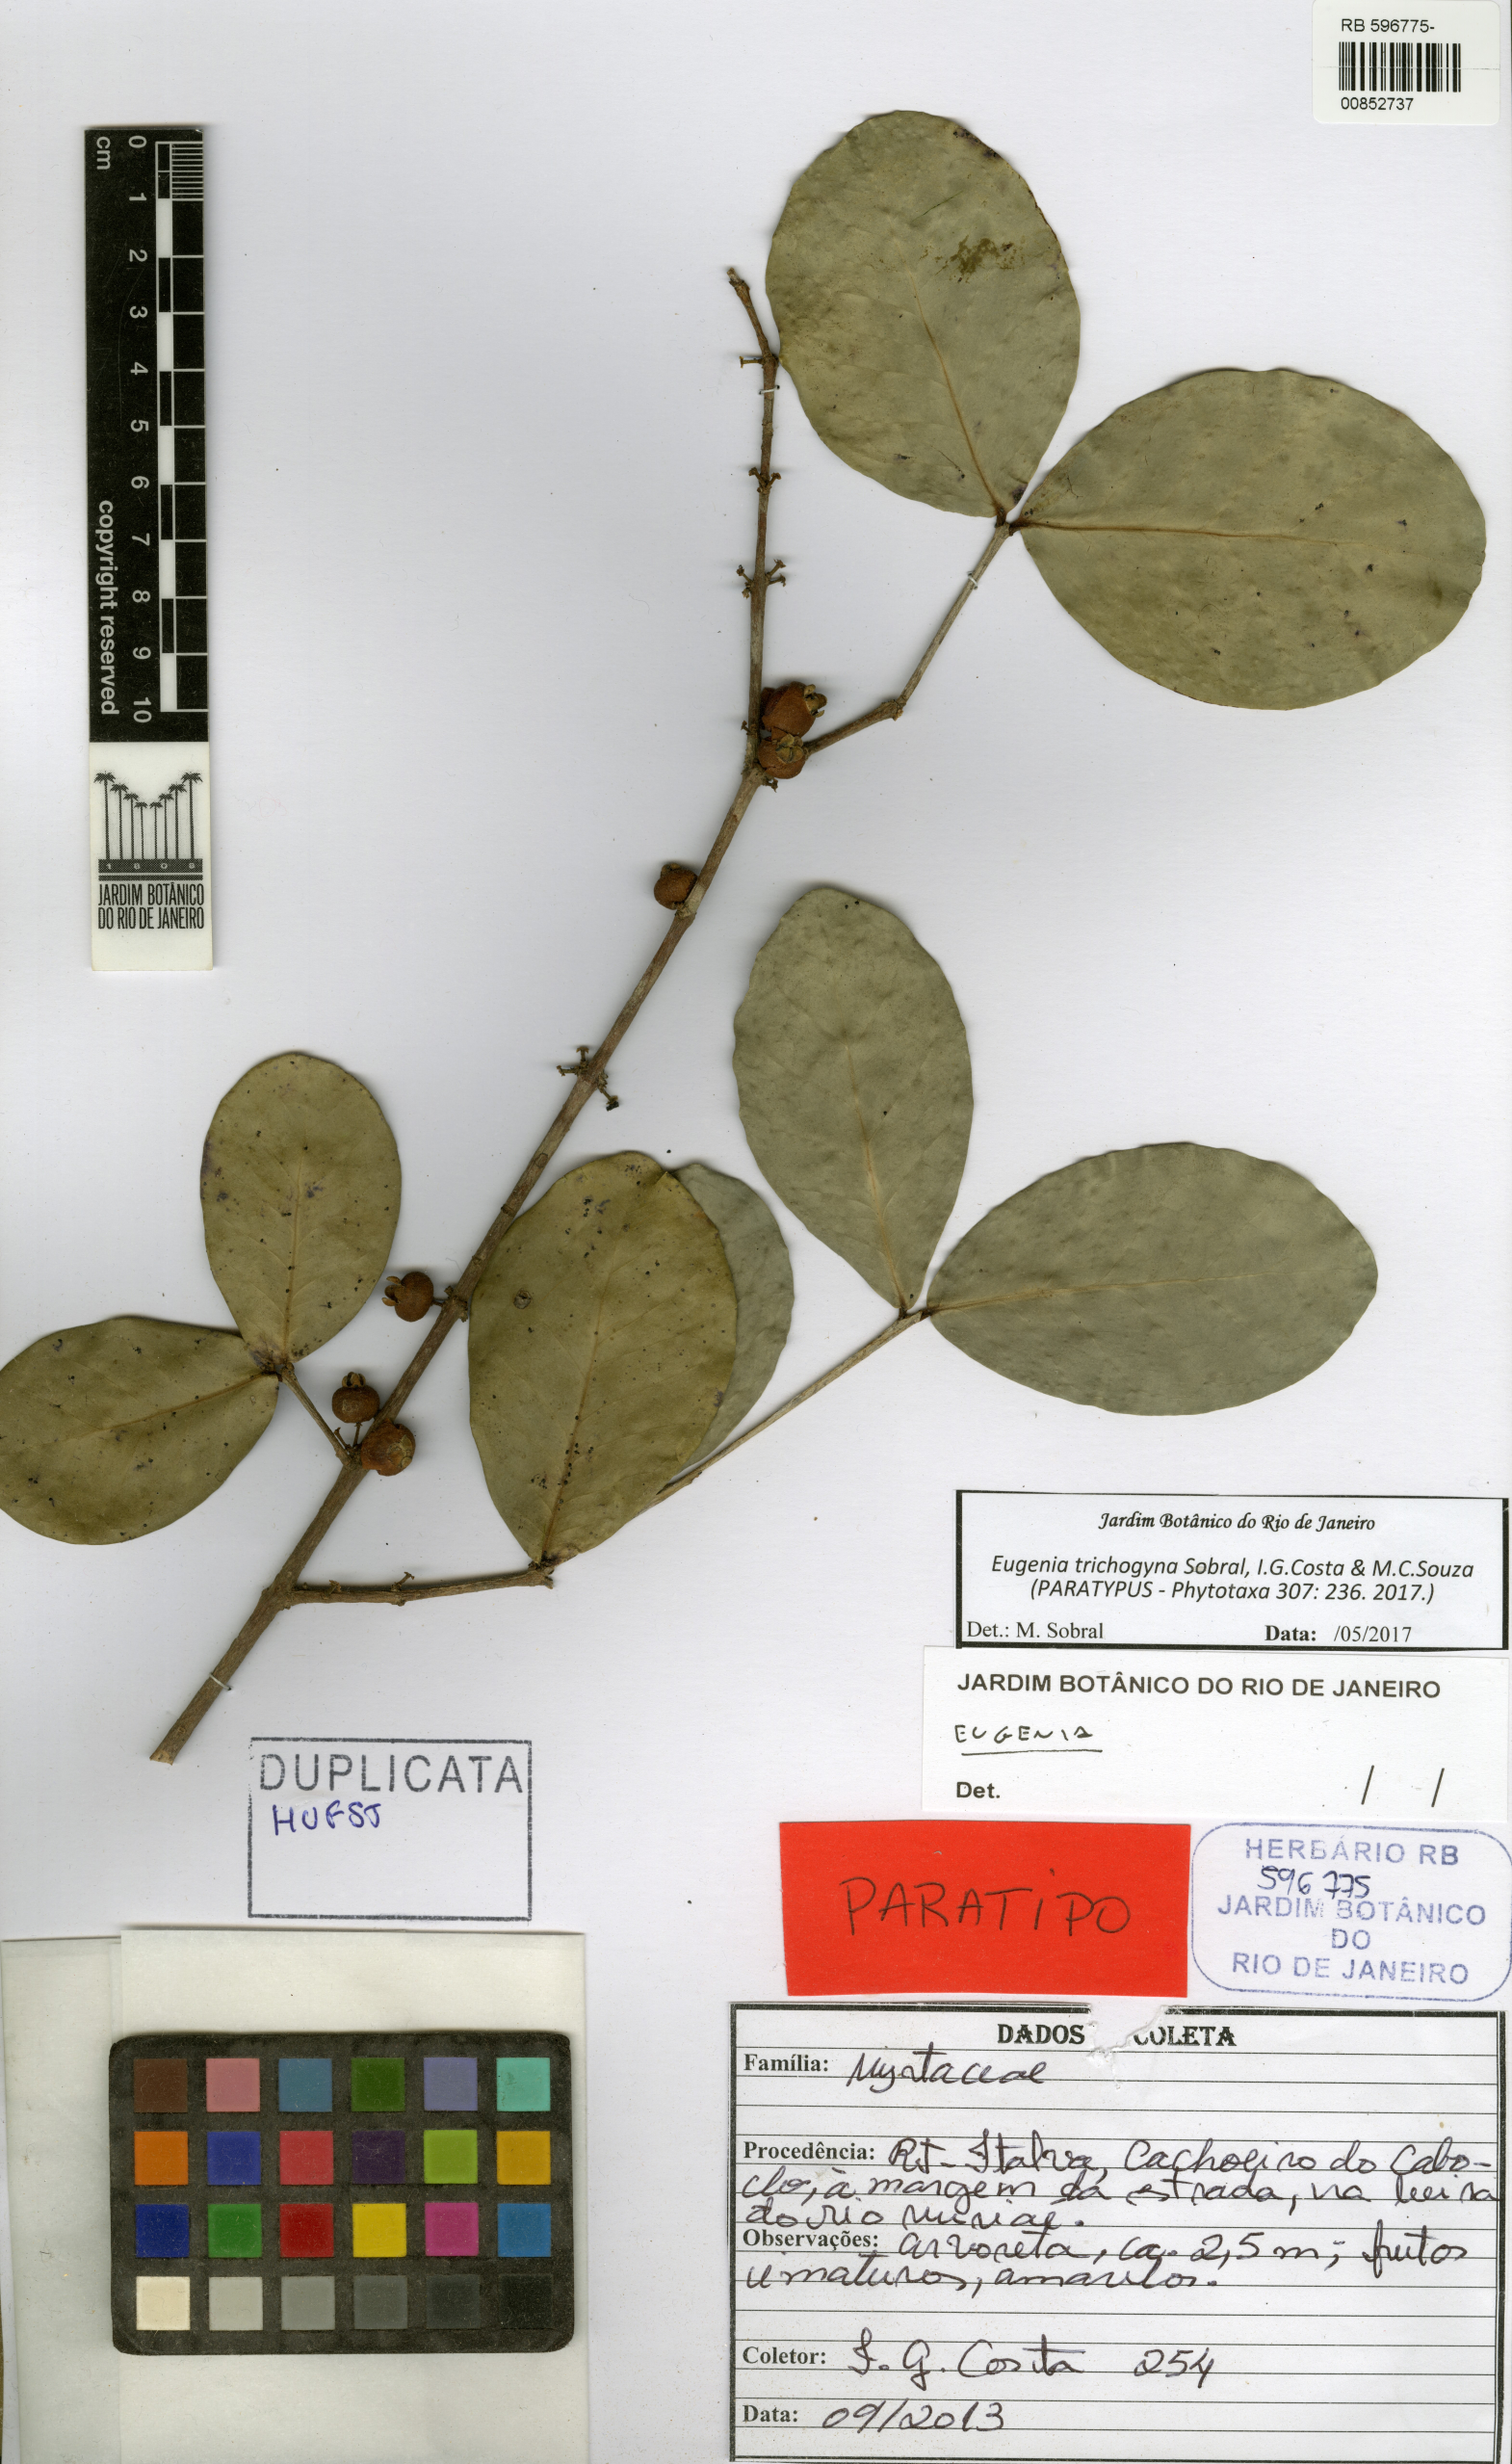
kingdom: Plantae
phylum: Tracheophyta
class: Magnoliopsida
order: Myrtales
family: Myrtaceae
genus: Eugenia
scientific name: Eugenia trichogyna
